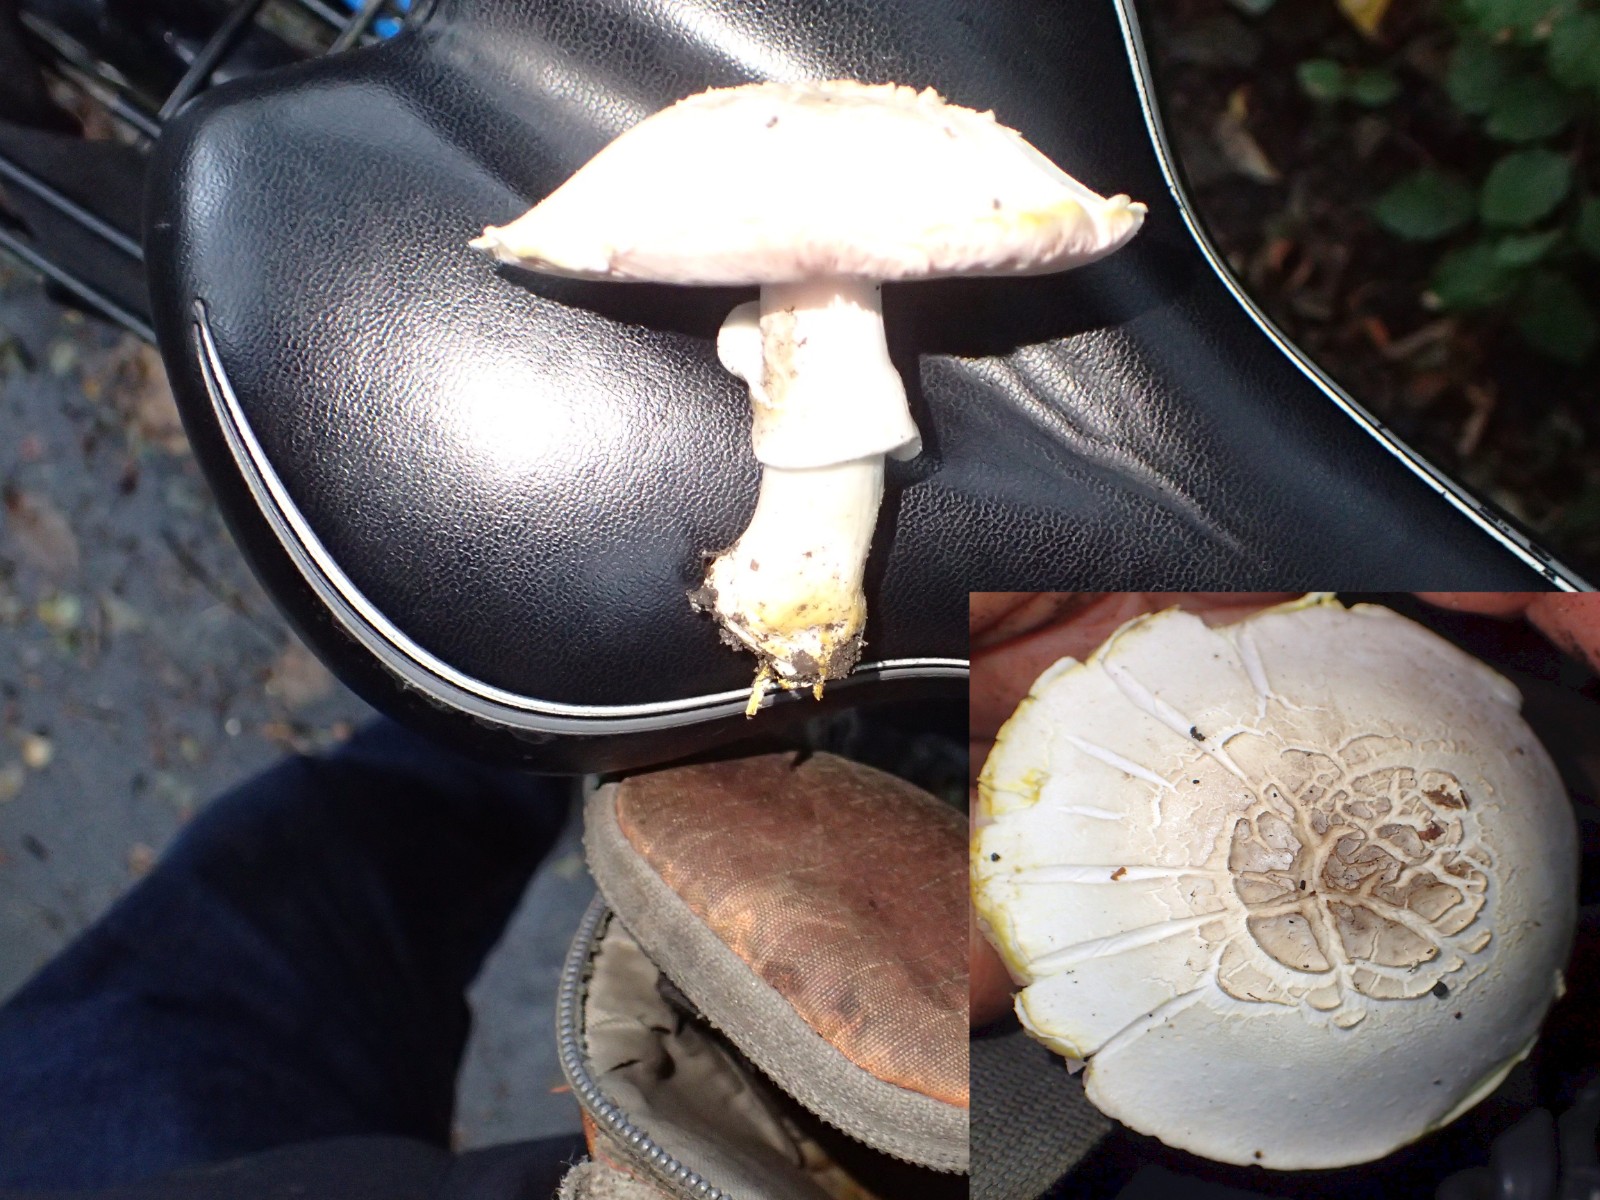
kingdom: Fungi
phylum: Basidiomycota
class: Agaricomycetes
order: Agaricales
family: Agaricaceae
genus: Agaricus
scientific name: Agaricus xanthodermus
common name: karbol-champignon
